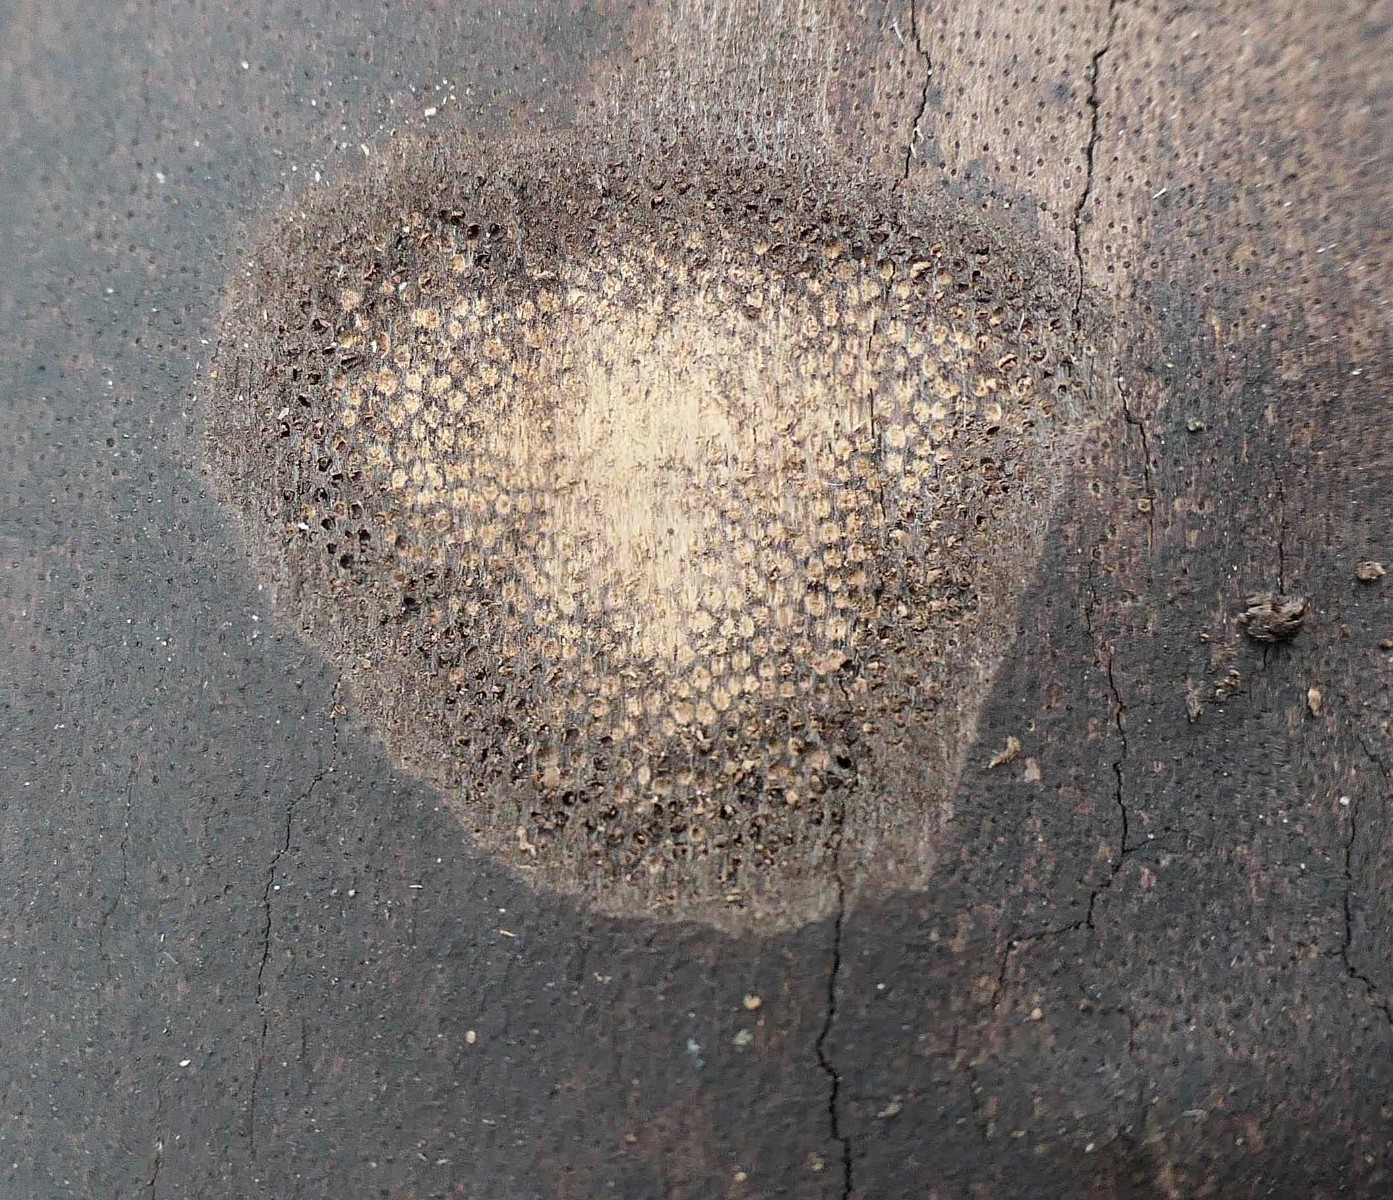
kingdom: Fungi
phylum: Ascomycota
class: Sordariomycetes
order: Xylariales
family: Diatrypaceae
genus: Eutypa
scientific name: Eutypa maura
